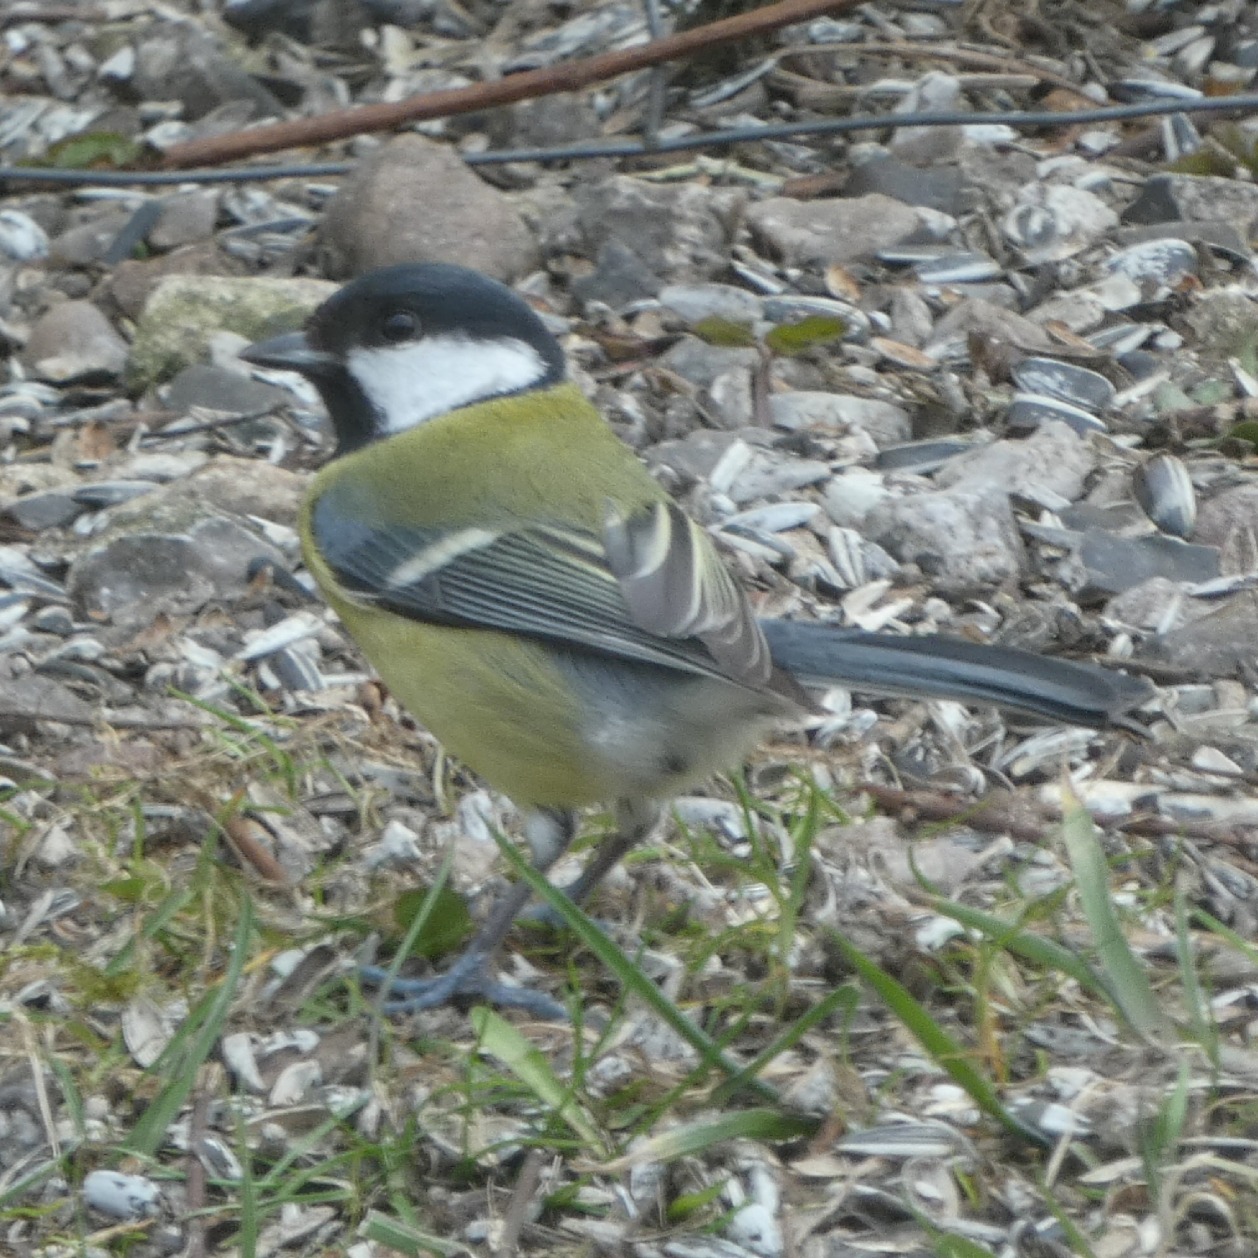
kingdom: Animalia
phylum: Chordata
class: Aves
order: Passeriformes
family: Paridae
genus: Parus
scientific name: Parus major
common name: Musvit
